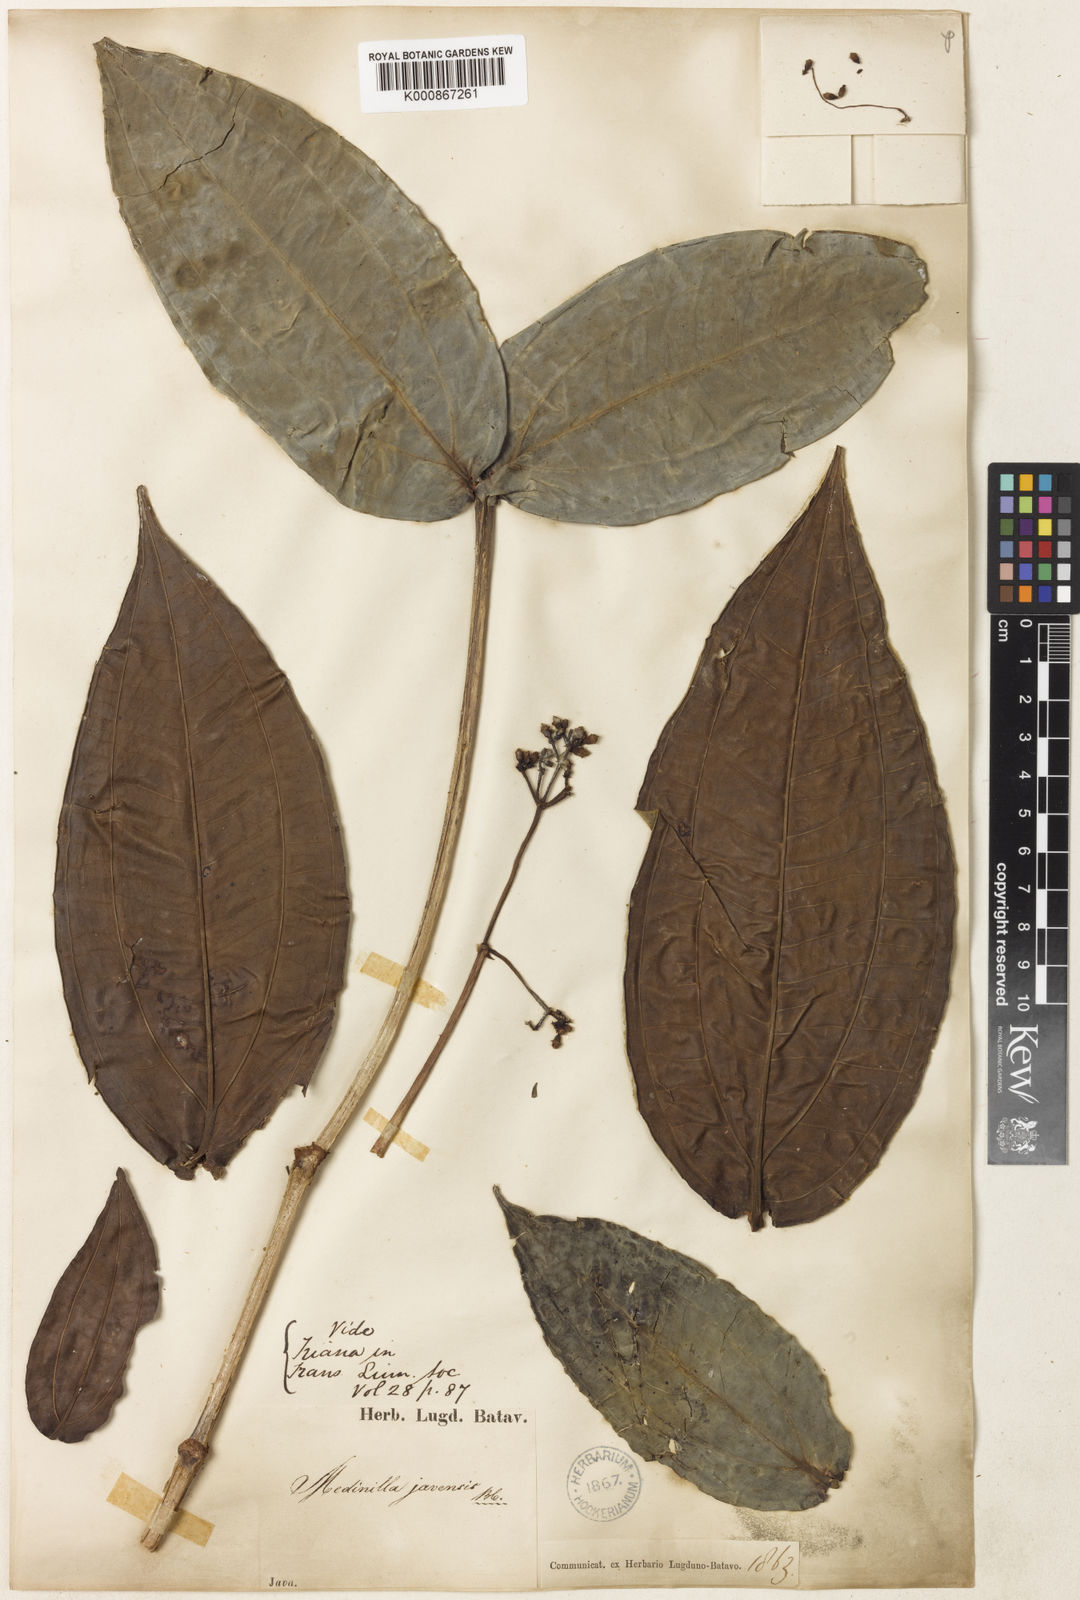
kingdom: Plantae
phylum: Tracheophyta
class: Magnoliopsida
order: Myrtales
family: Melastomataceae
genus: Medinilla
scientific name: Medinilla macrophylla
